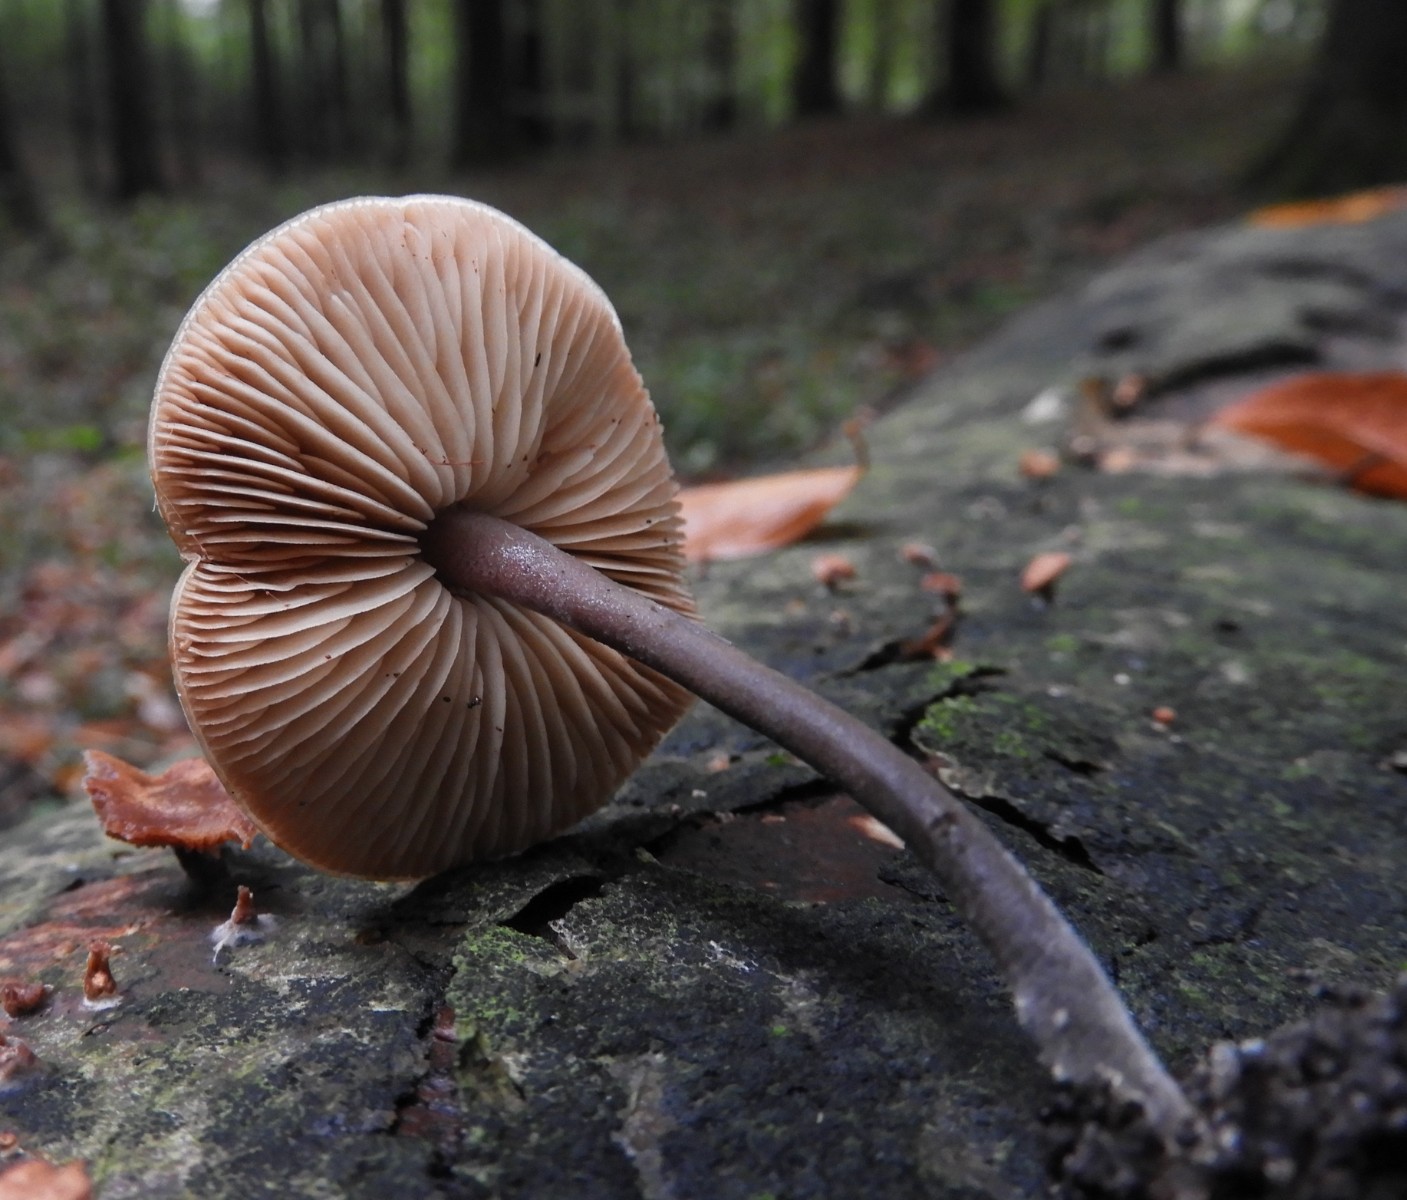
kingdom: Fungi
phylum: Basidiomycota
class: Agaricomycetes
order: Agaricales
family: Macrocystidiaceae
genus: Macrocystidia
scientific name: Macrocystidia cucumis
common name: agurkehat
